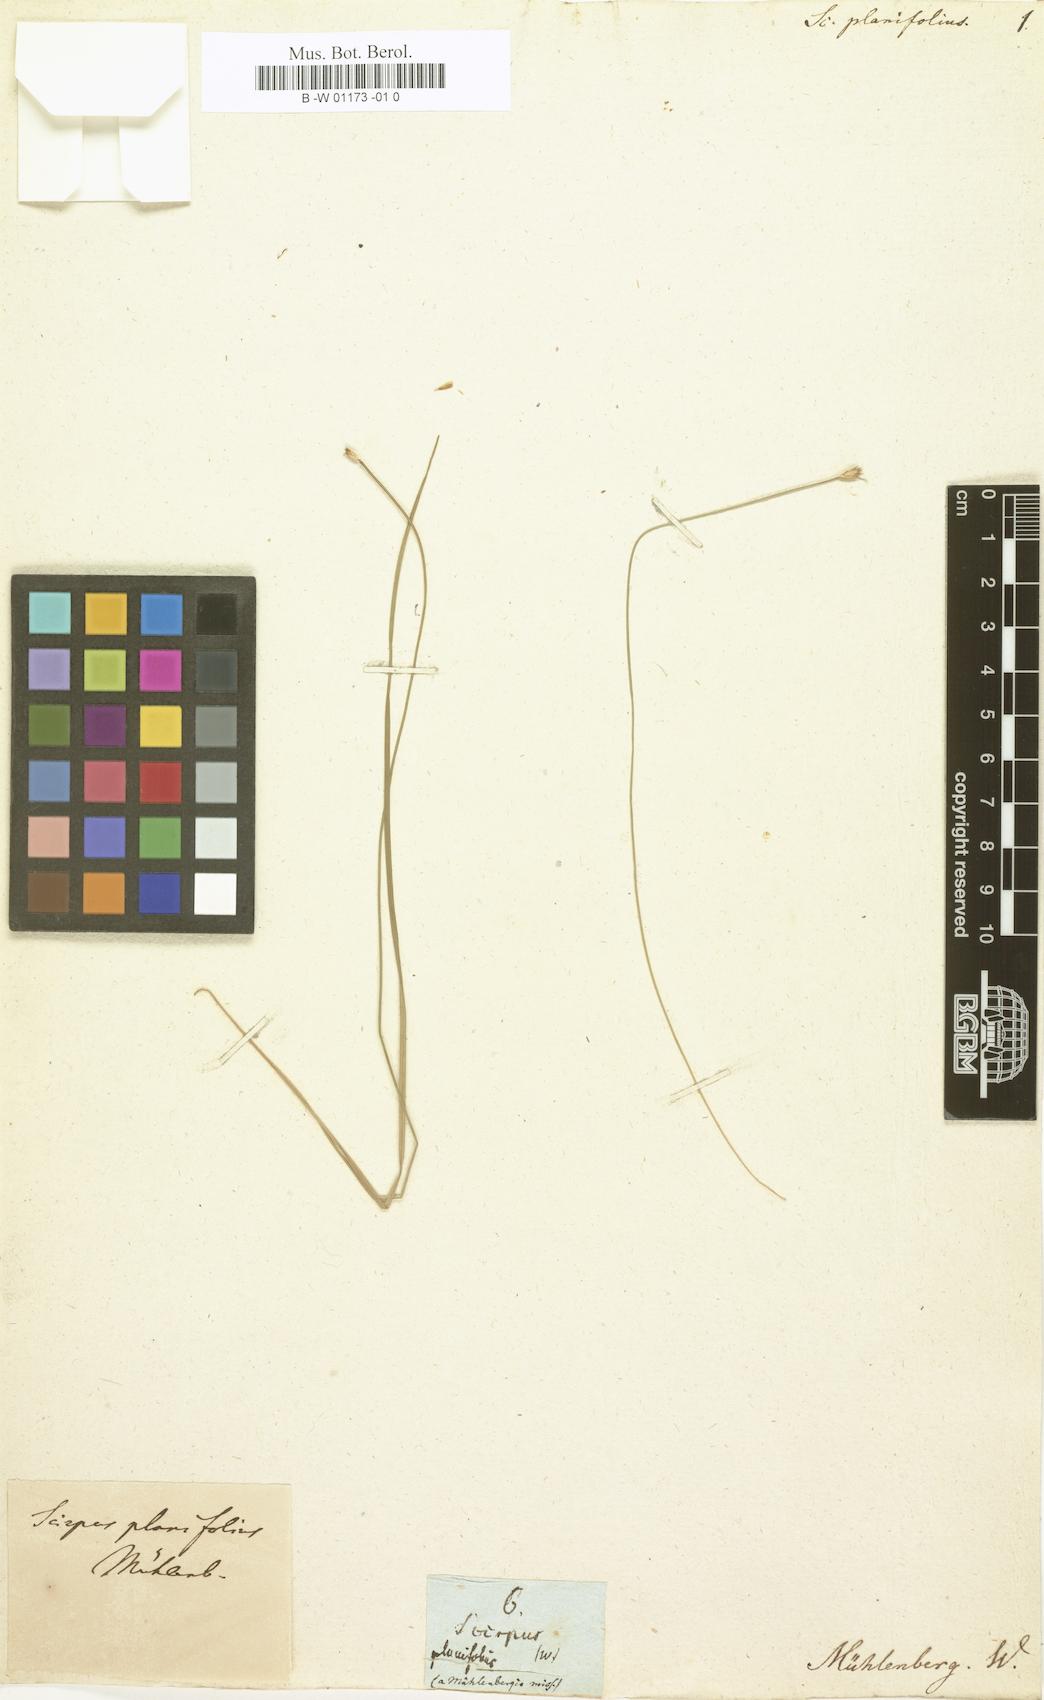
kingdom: Plantae
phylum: Tracheophyta
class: Liliopsida
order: Poales
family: Cyperaceae
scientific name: Cyperaceae
